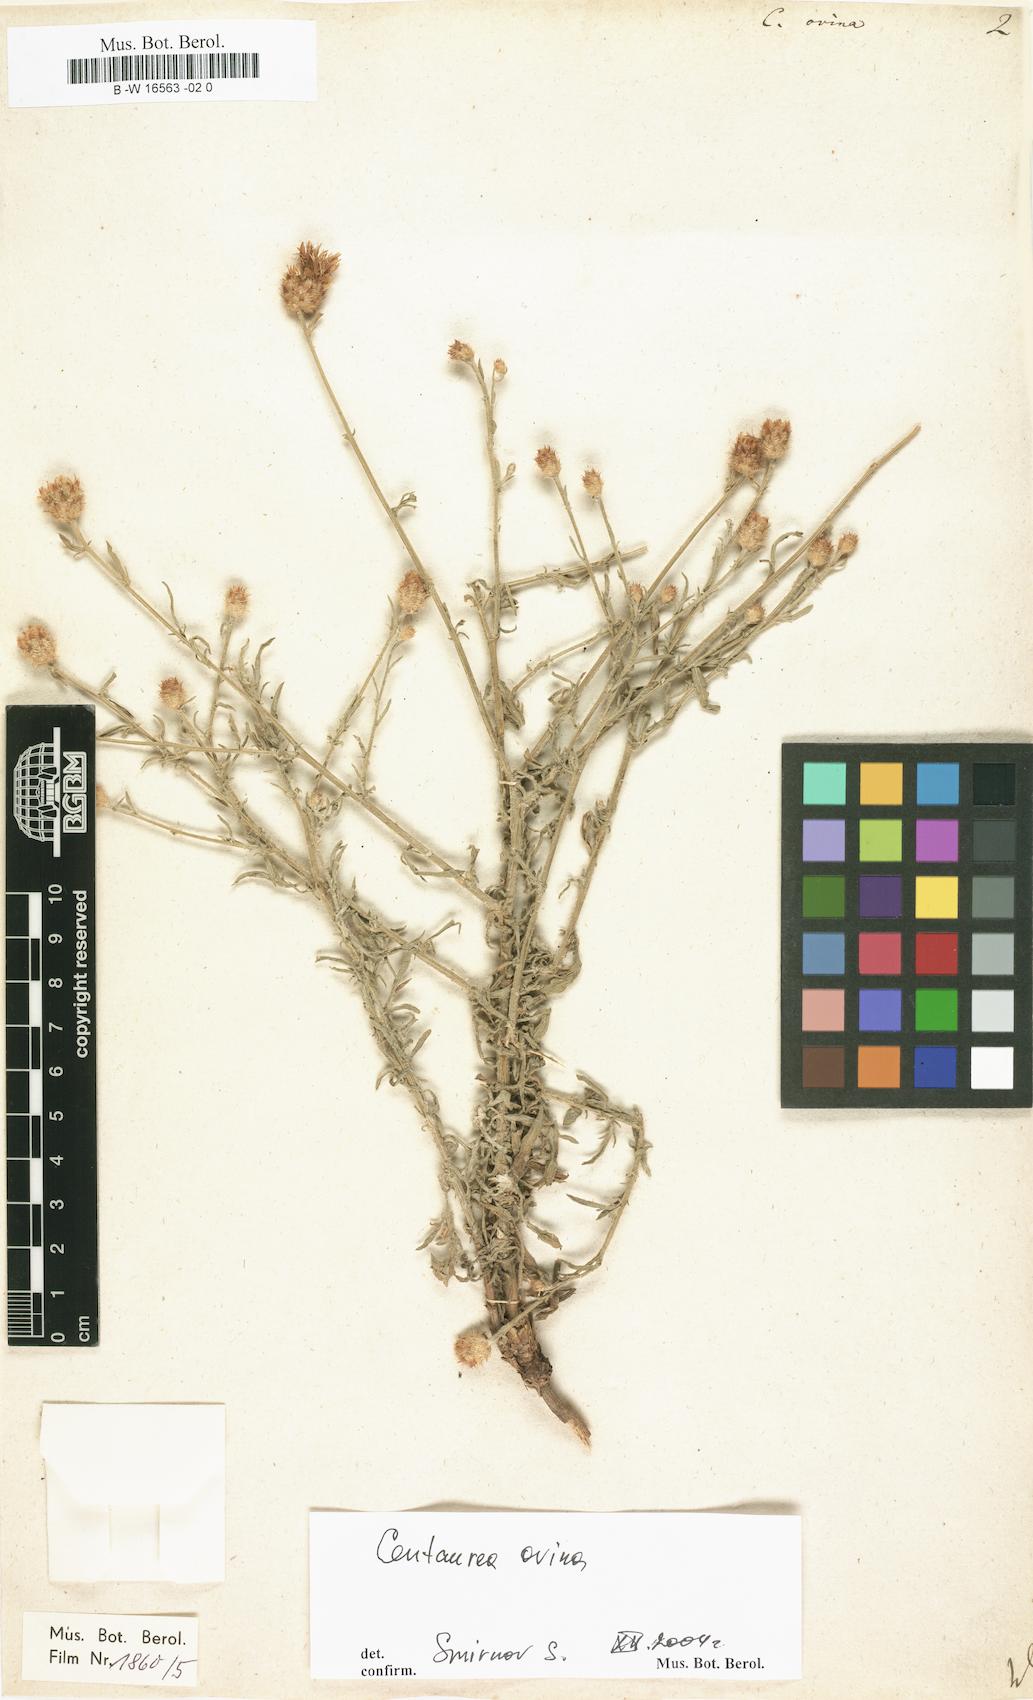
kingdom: Plantae
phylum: Tracheophyta
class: Magnoliopsida
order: Asterales
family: Asteraceae
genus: Centaurea
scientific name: Centaurea ovina
